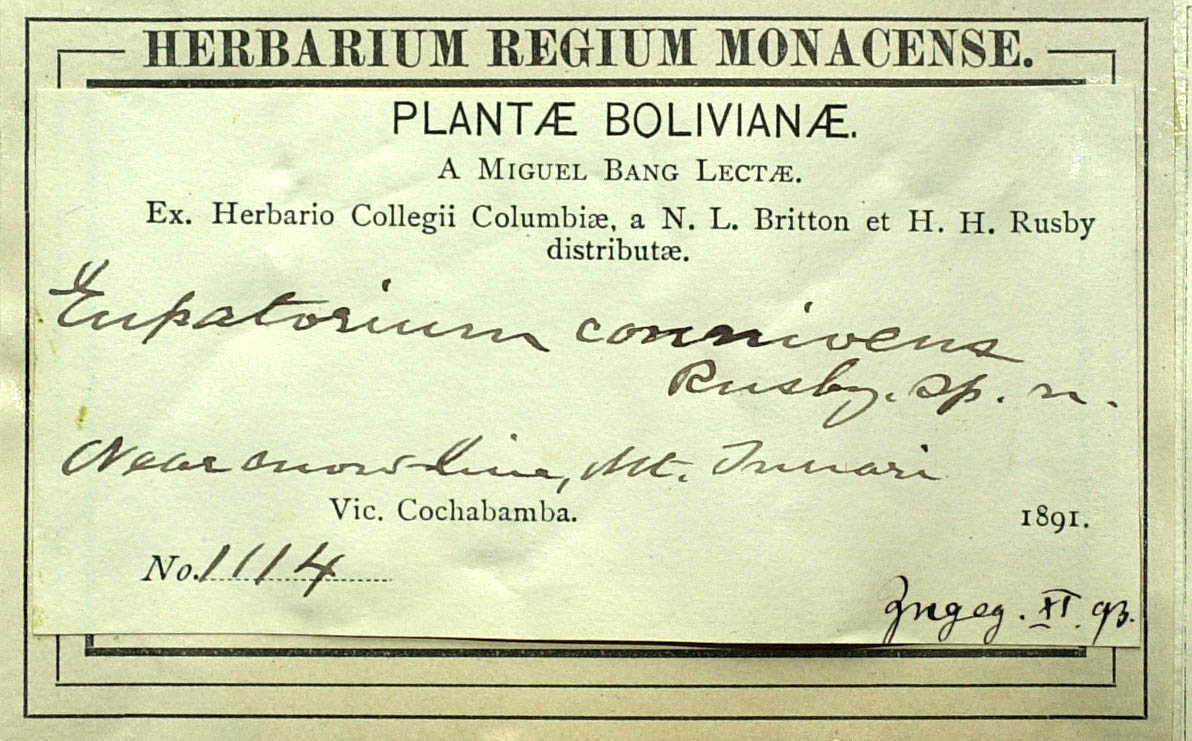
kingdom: Plantae
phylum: Tracheophyta
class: Magnoliopsida
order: Asterales
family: Asteraceae
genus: Chromolaena
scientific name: Chromolaena connivens
